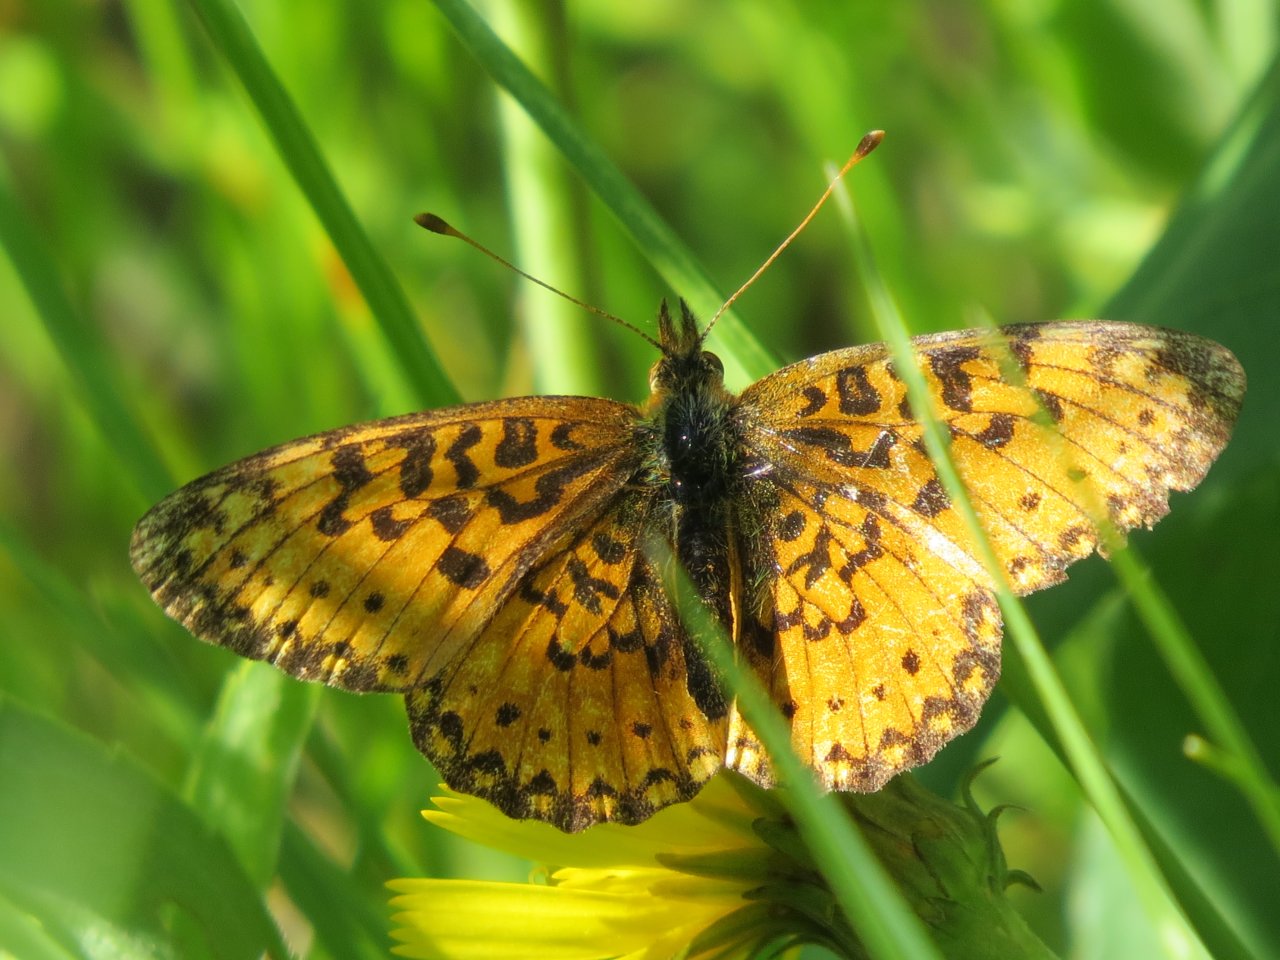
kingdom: Animalia
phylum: Arthropoda
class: Insecta
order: Lepidoptera
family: Nymphalidae
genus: Boloria
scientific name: Boloria eunomia
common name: Bog Fritillary
